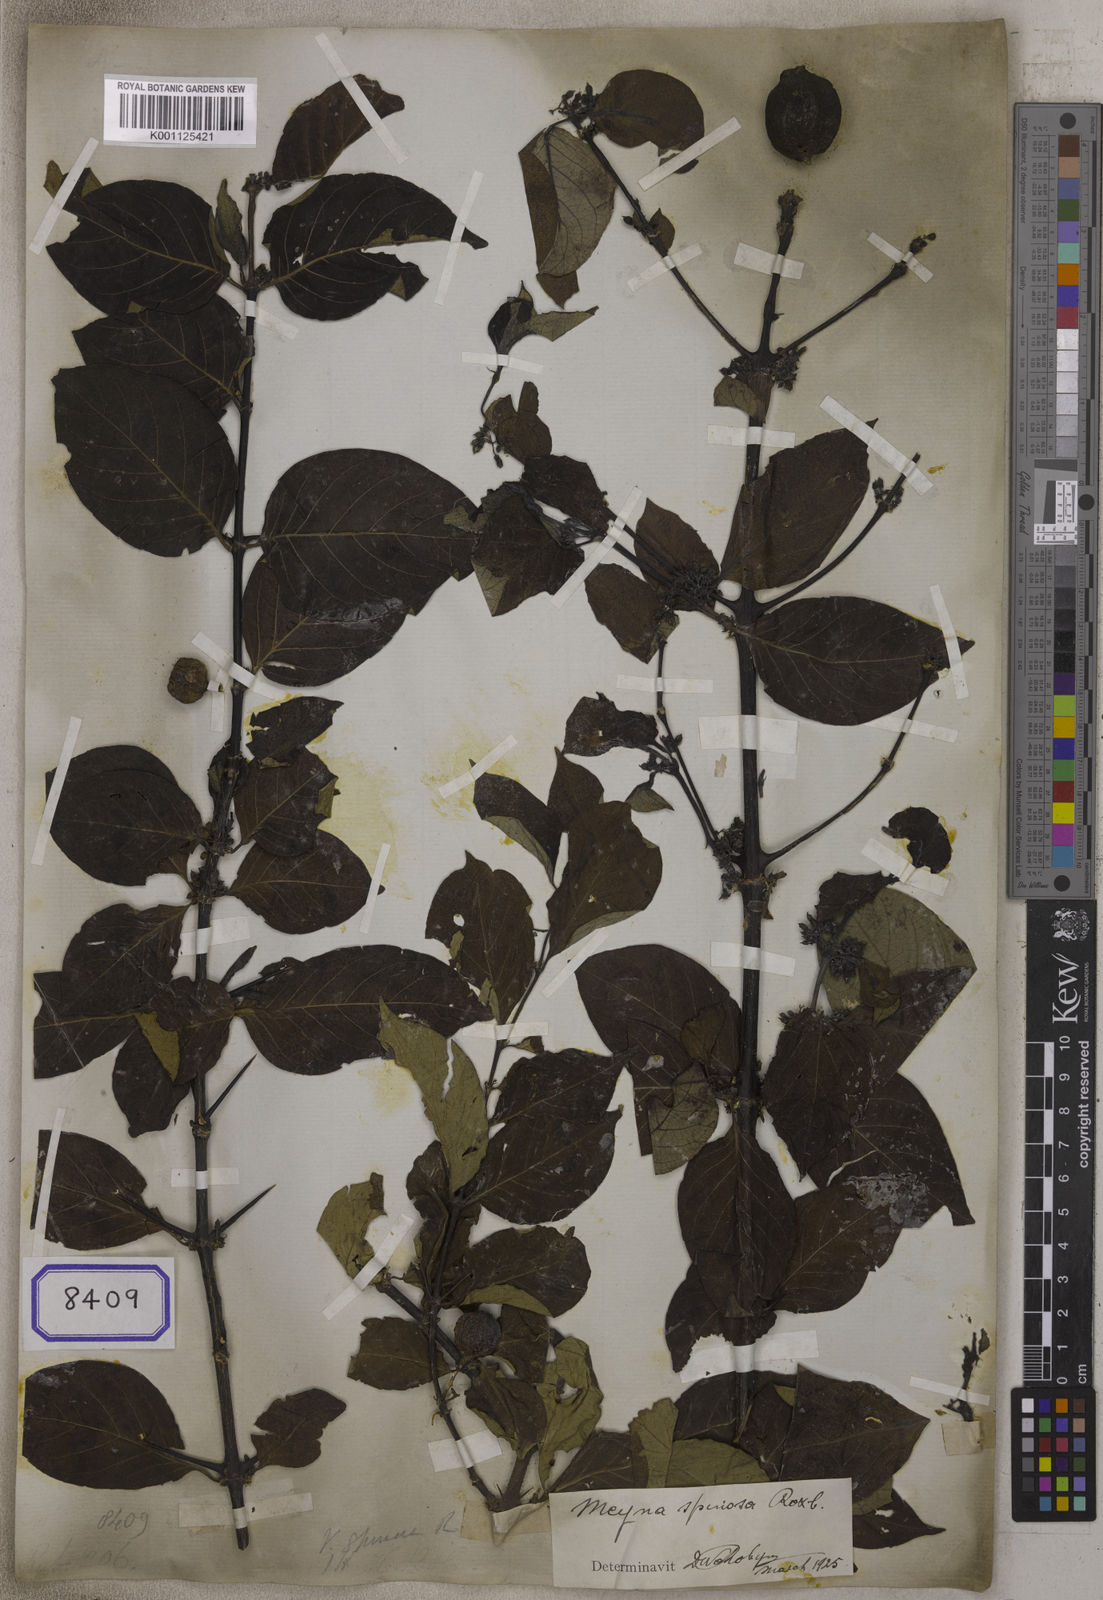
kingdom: Plantae
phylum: Tracheophyta
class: Magnoliopsida
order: Gentianales
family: Rubiaceae
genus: Meyna
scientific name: Meyna spinosa
